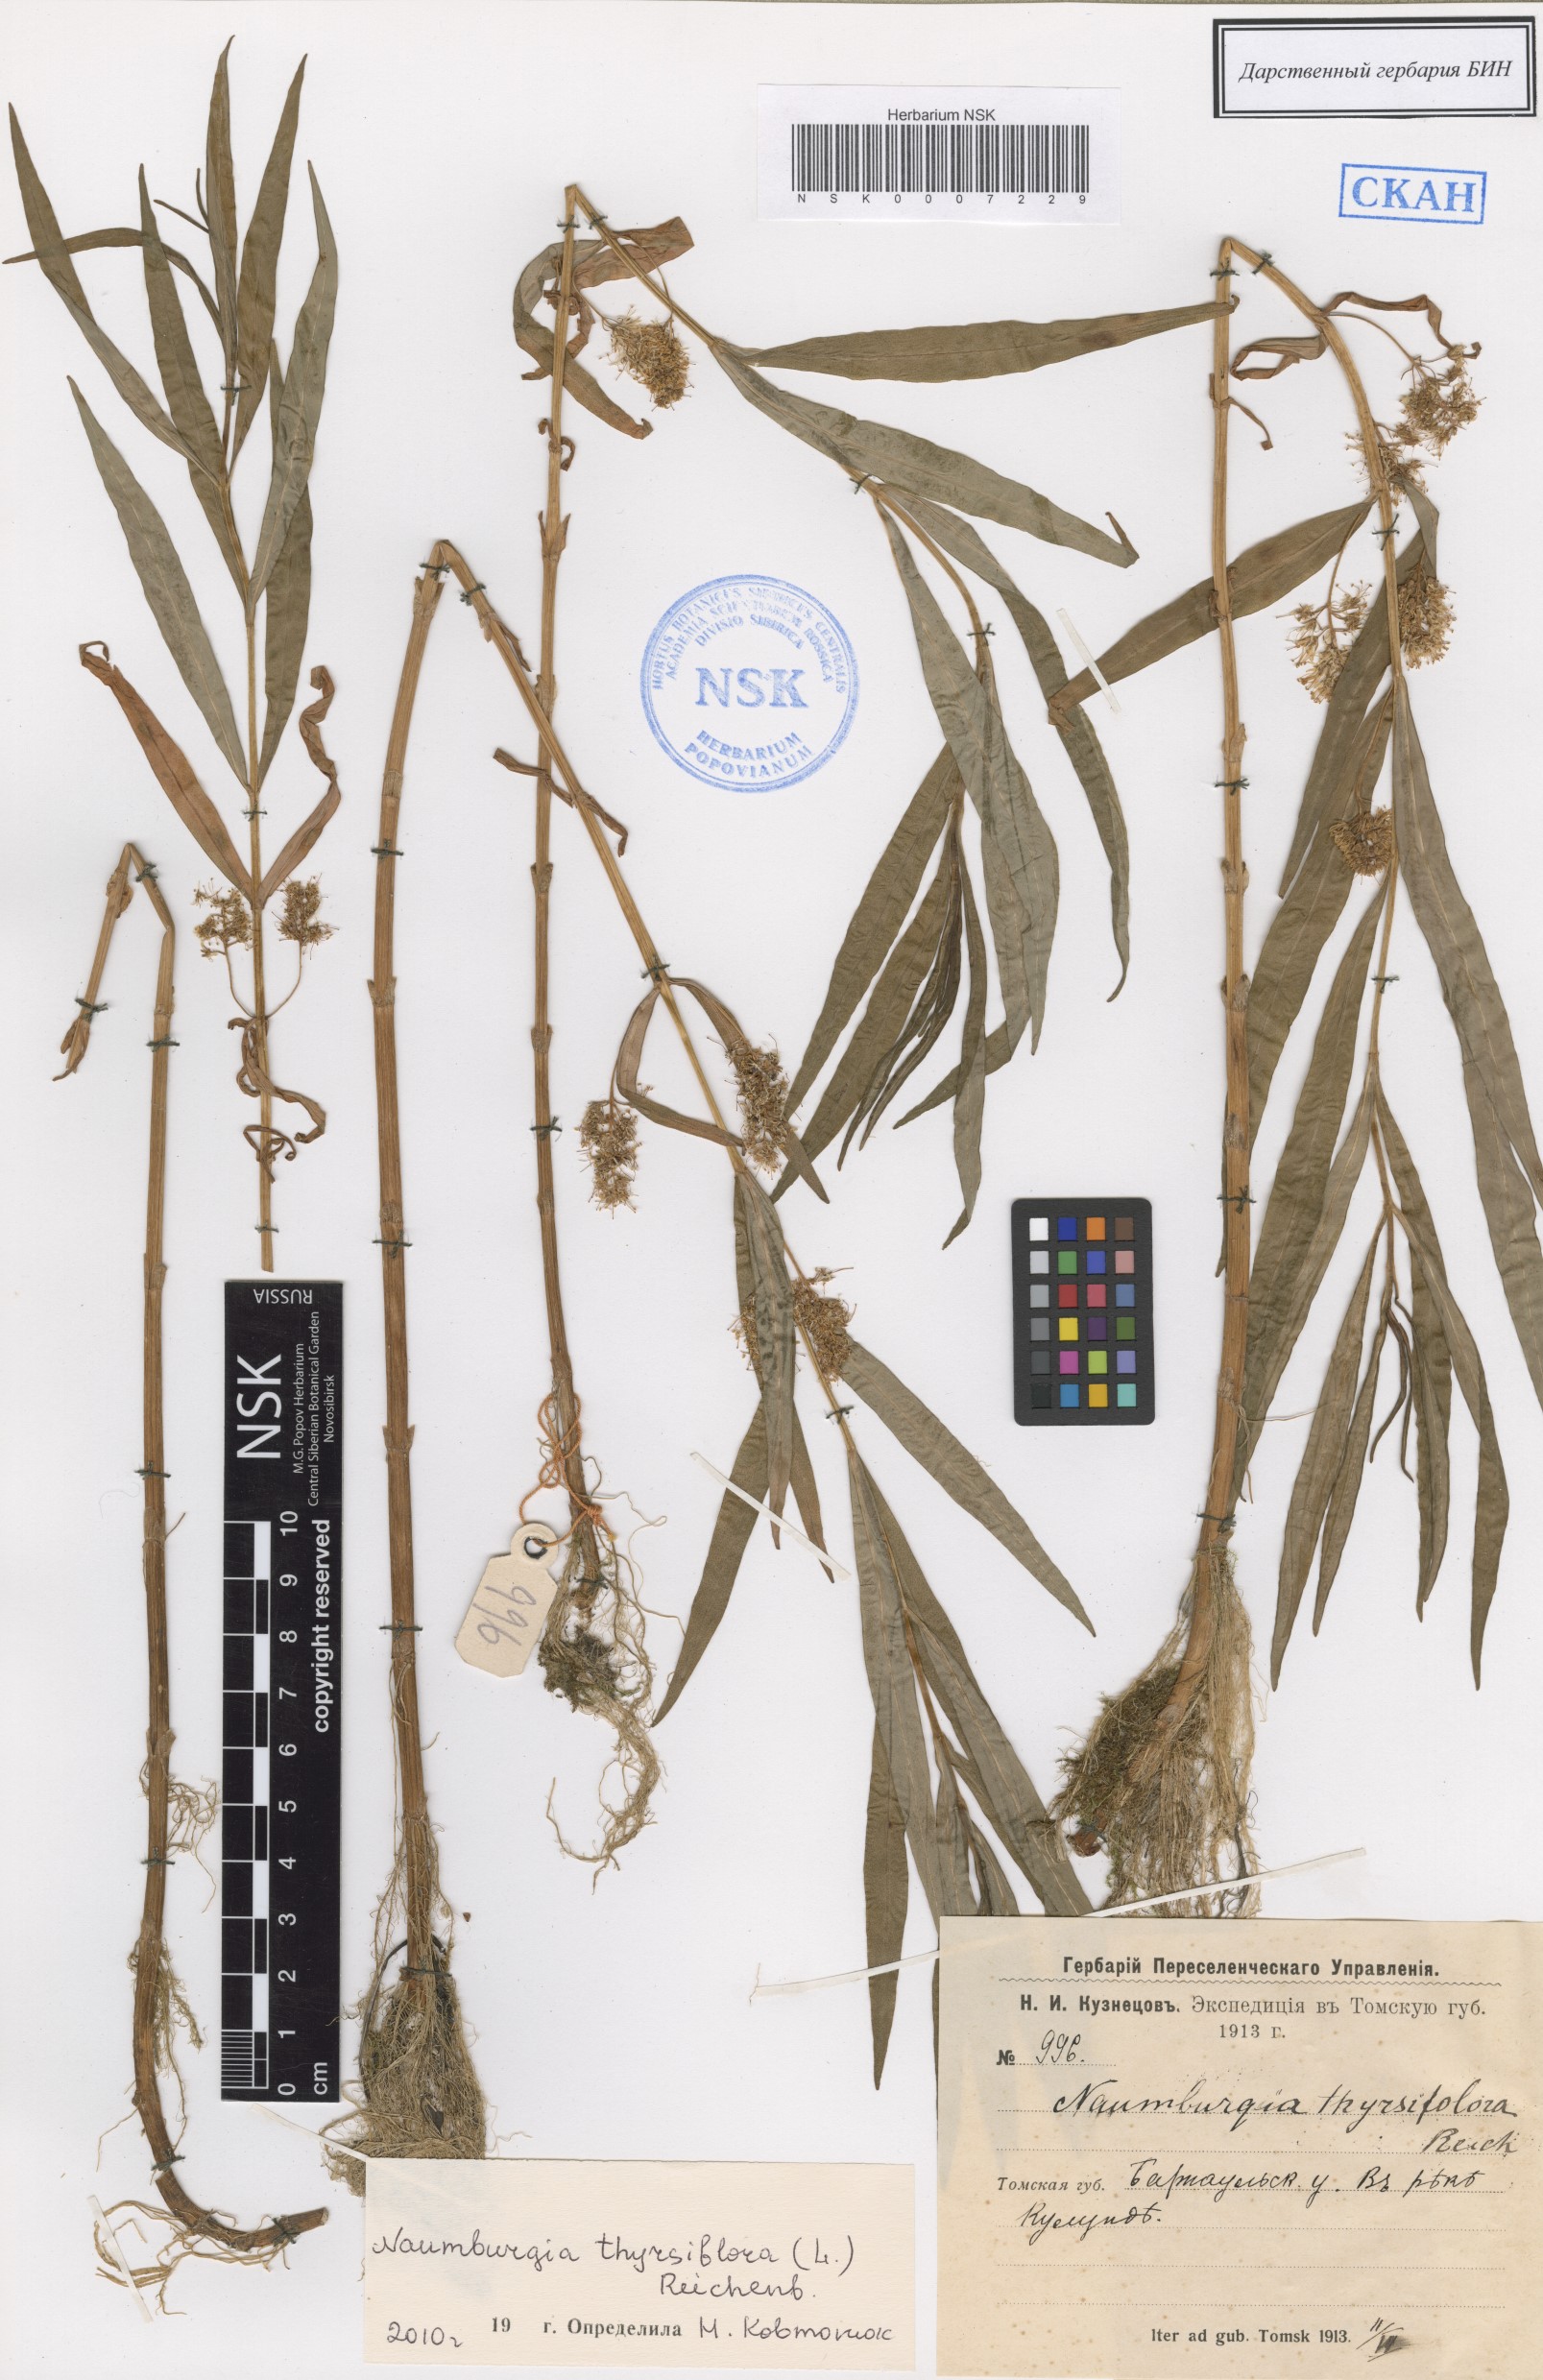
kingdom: Plantae
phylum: Tracheophyta
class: Magnoliopsida
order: Ericales
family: Primulaceae
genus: Lysimachia
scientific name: Lysimachia thyrsiflora
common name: Tufted loosestrife
